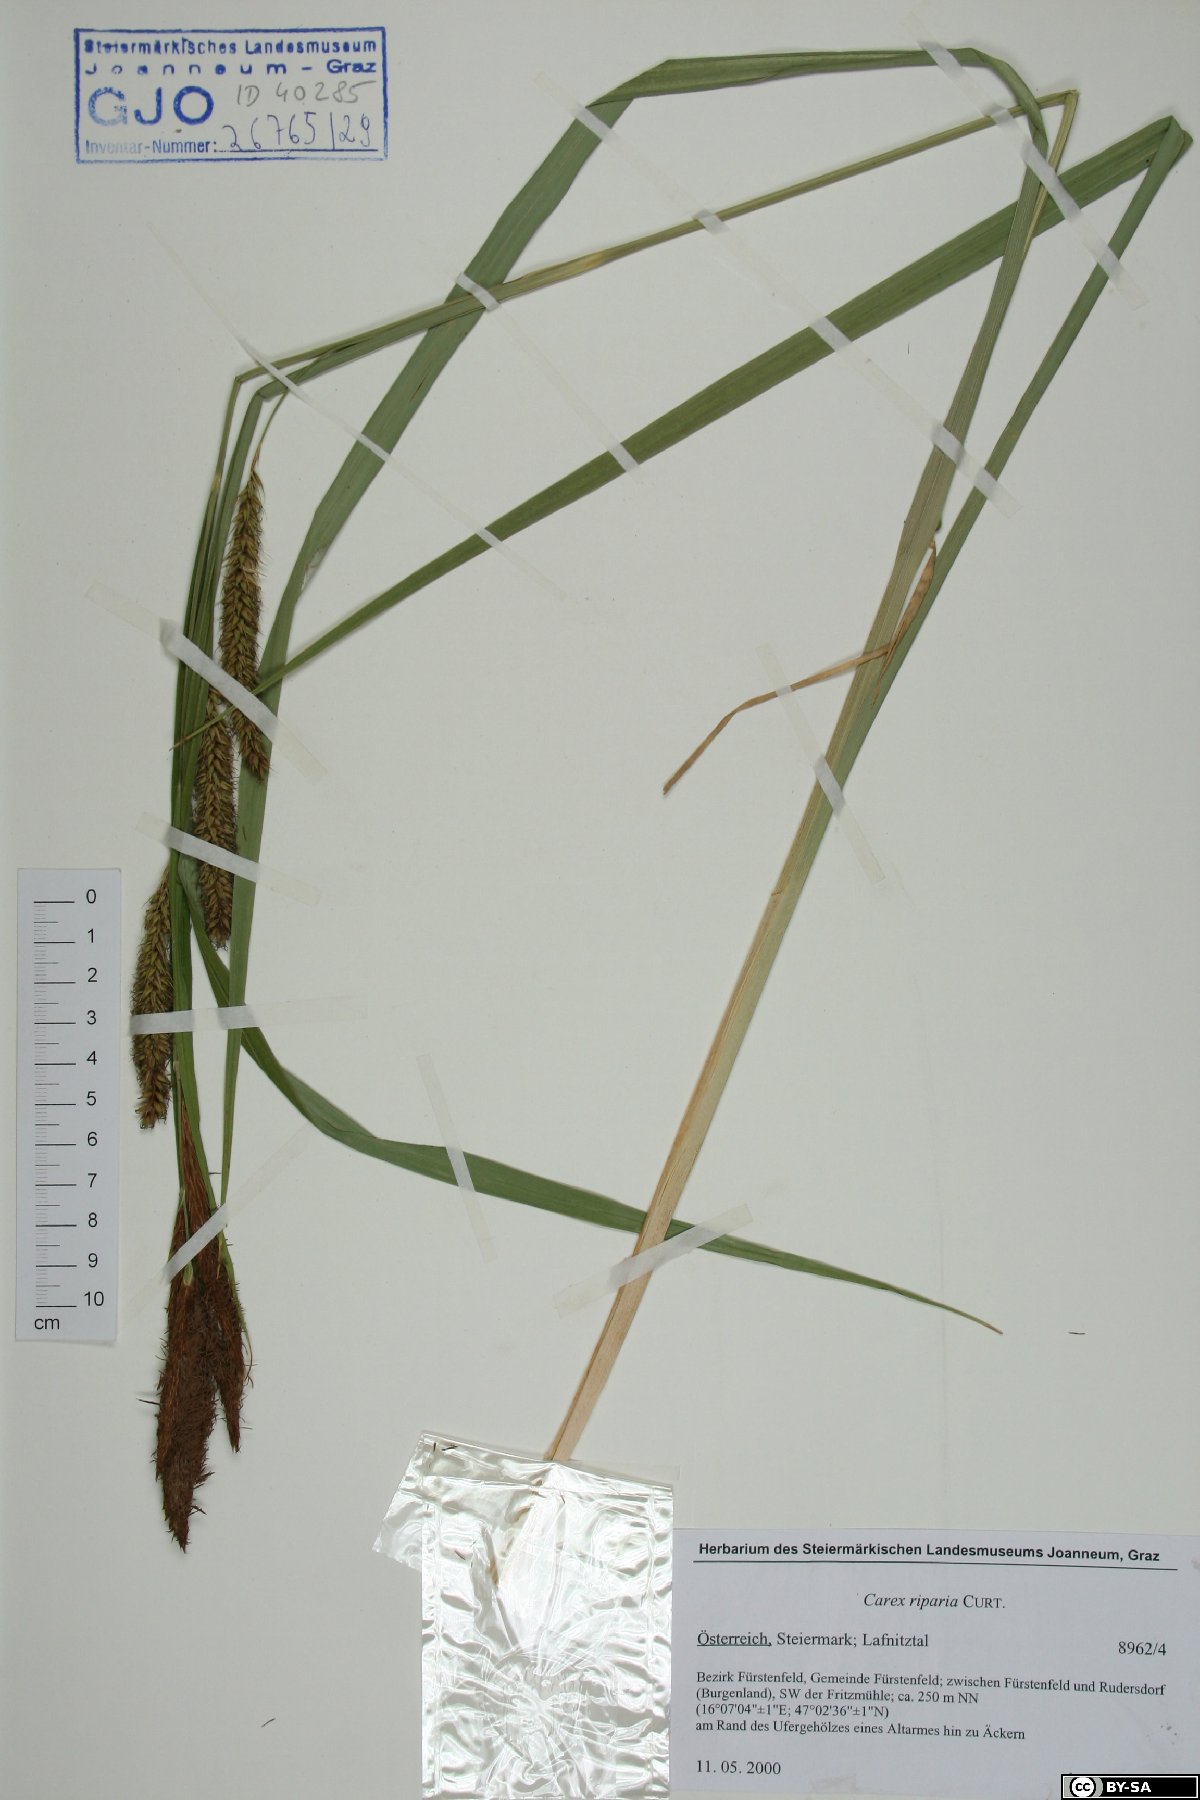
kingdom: Plantae
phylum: Tracheophyta
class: Liliopsida
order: Poales
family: Cyperaceae
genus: Carex
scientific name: Carex riparia
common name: Greater pond-sedge
